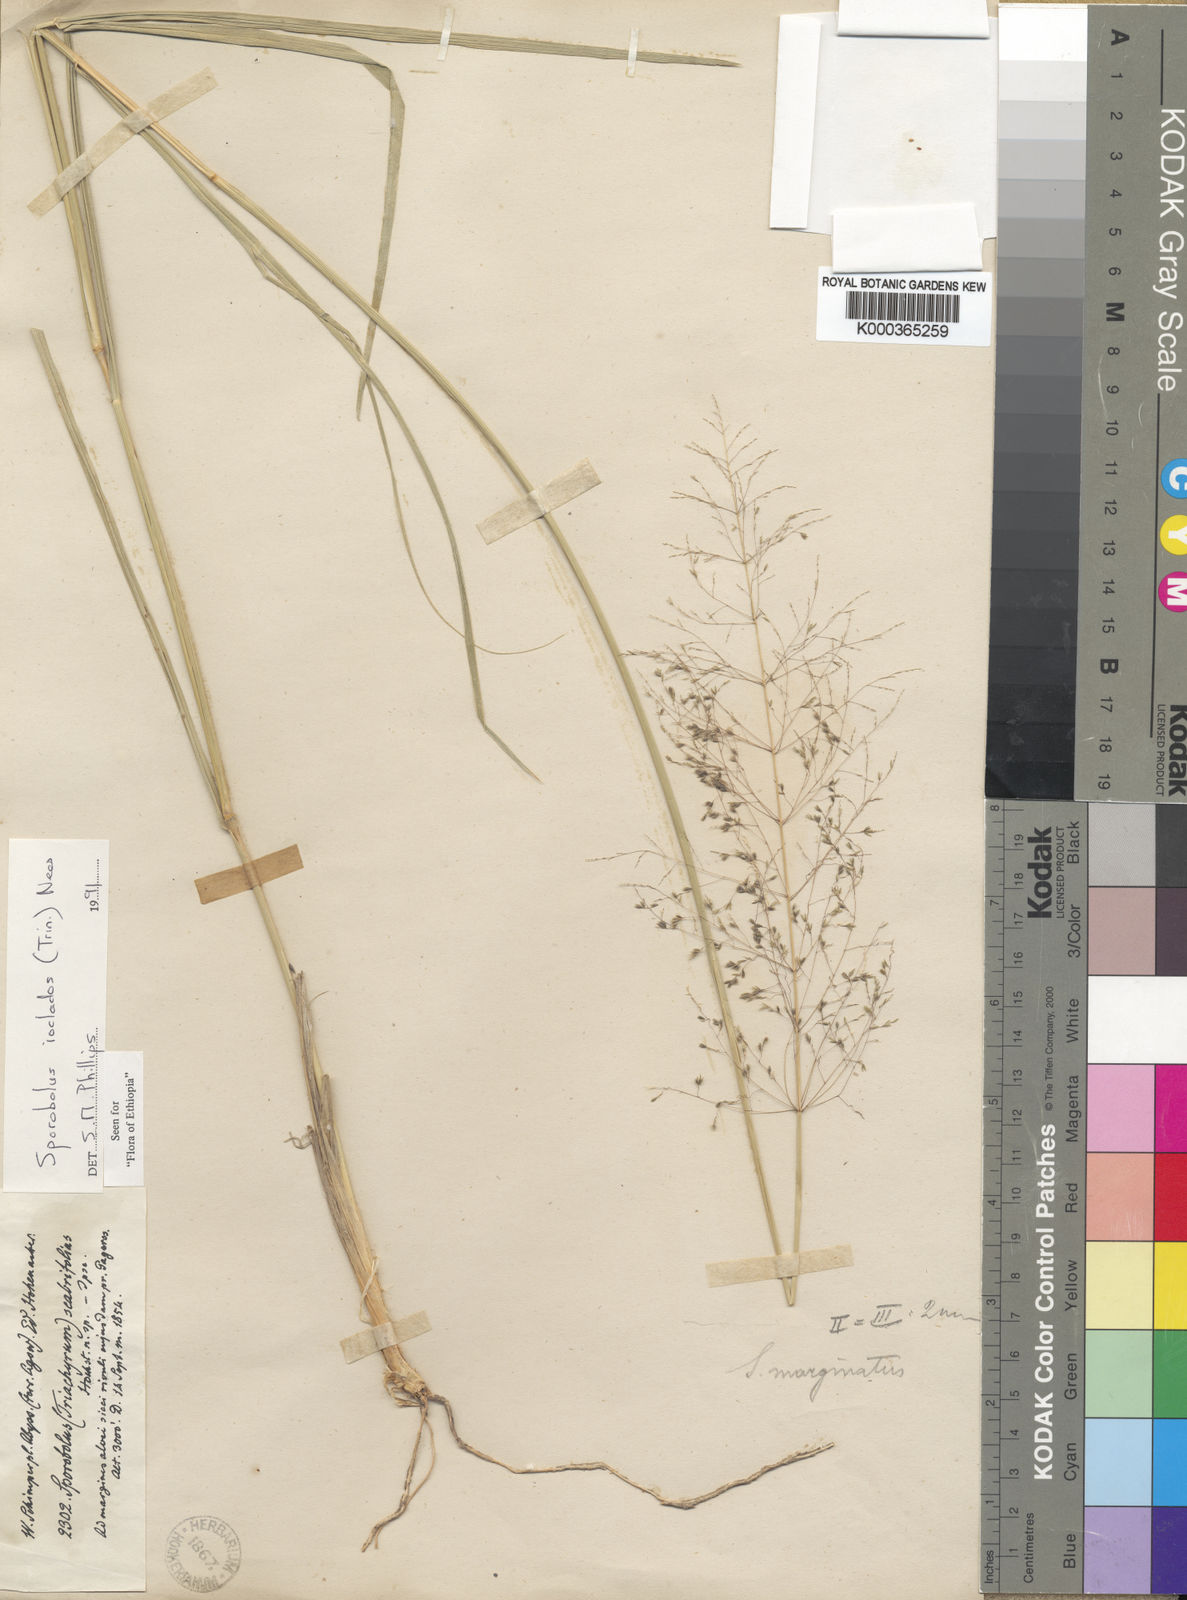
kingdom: Plantae
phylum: Tracheophyta
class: Liliopsida
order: Poales
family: Poaceae
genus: Sporobolus
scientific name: Sporobolus ioclados
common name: Pan dropseed
